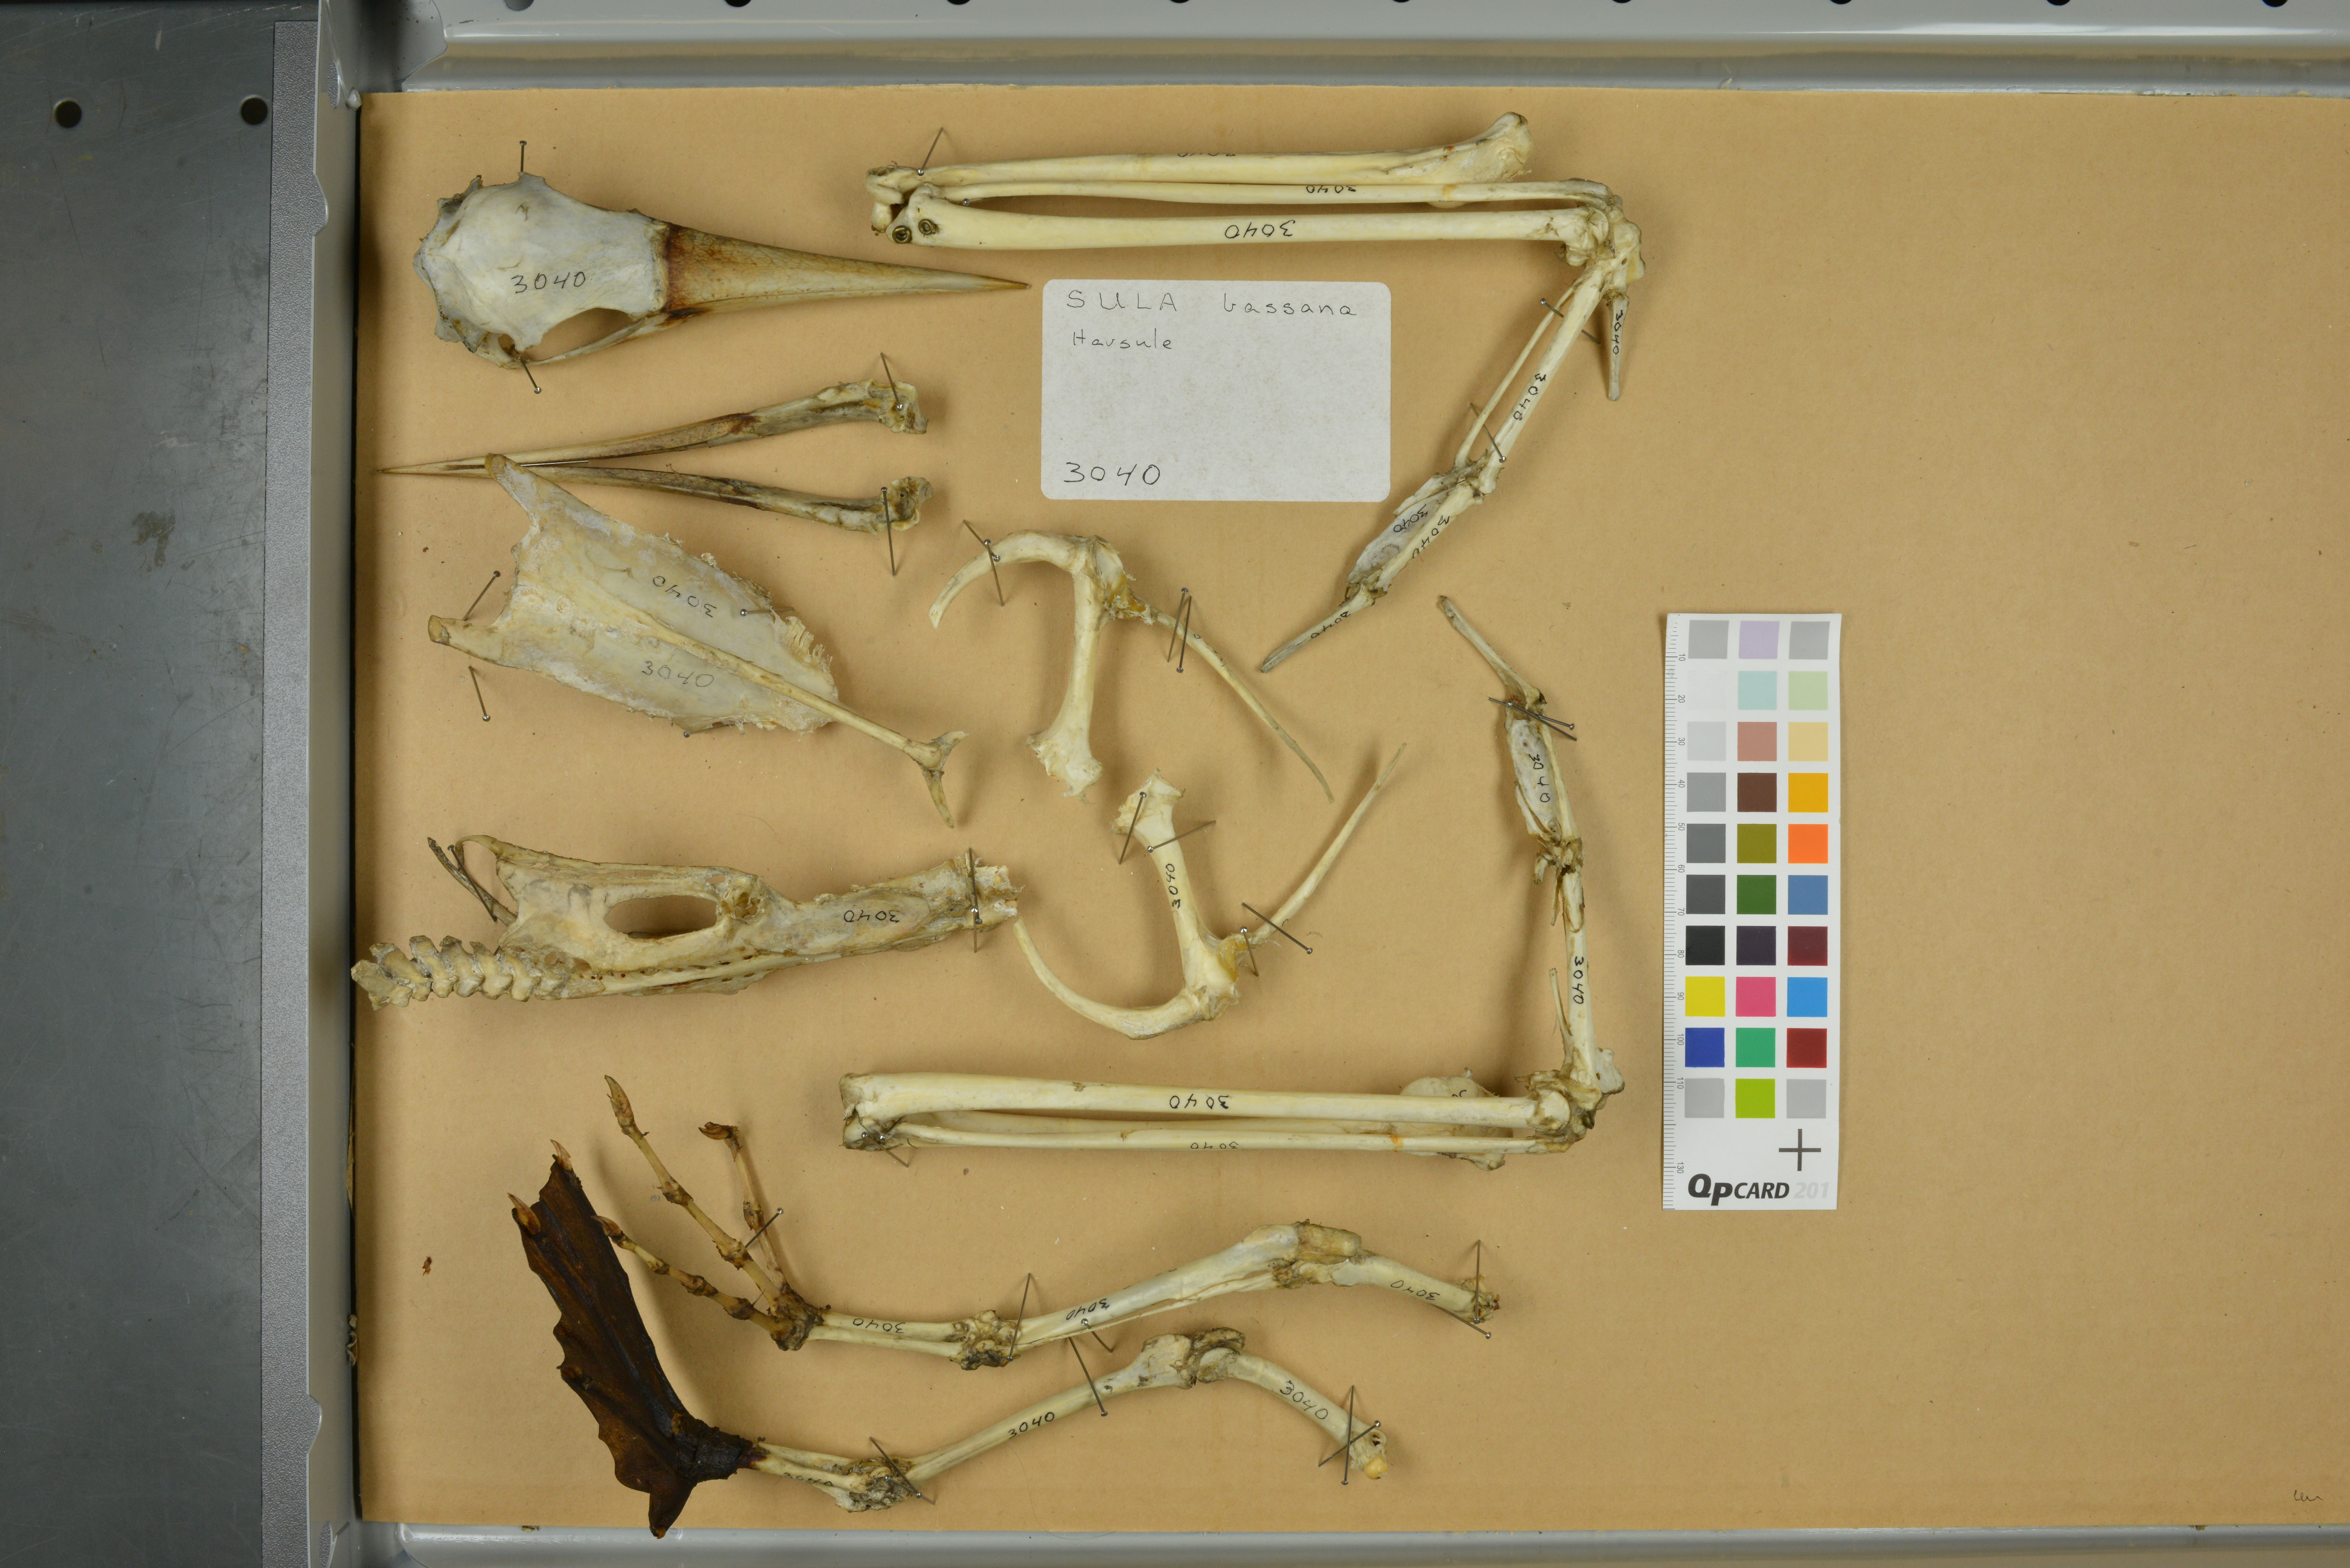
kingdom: Animalia
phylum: Chordata
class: Aves
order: Suliformes
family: Sulidae
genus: Sula
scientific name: Sula
